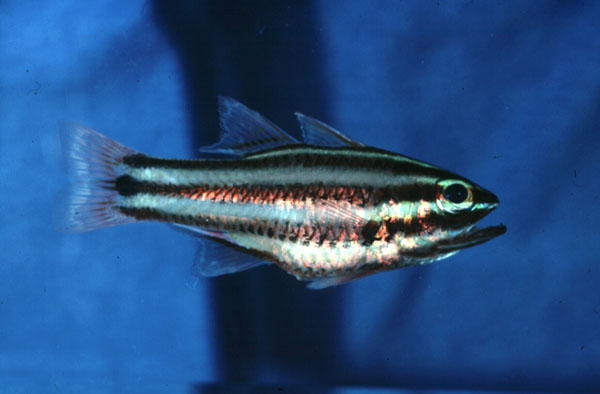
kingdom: Animalia
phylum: Chordata
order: Perciformes
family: Apogonidae
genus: Ostorhinchus
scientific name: Ostorhinchus angustatus
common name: Narrow-striped cardinalfish
